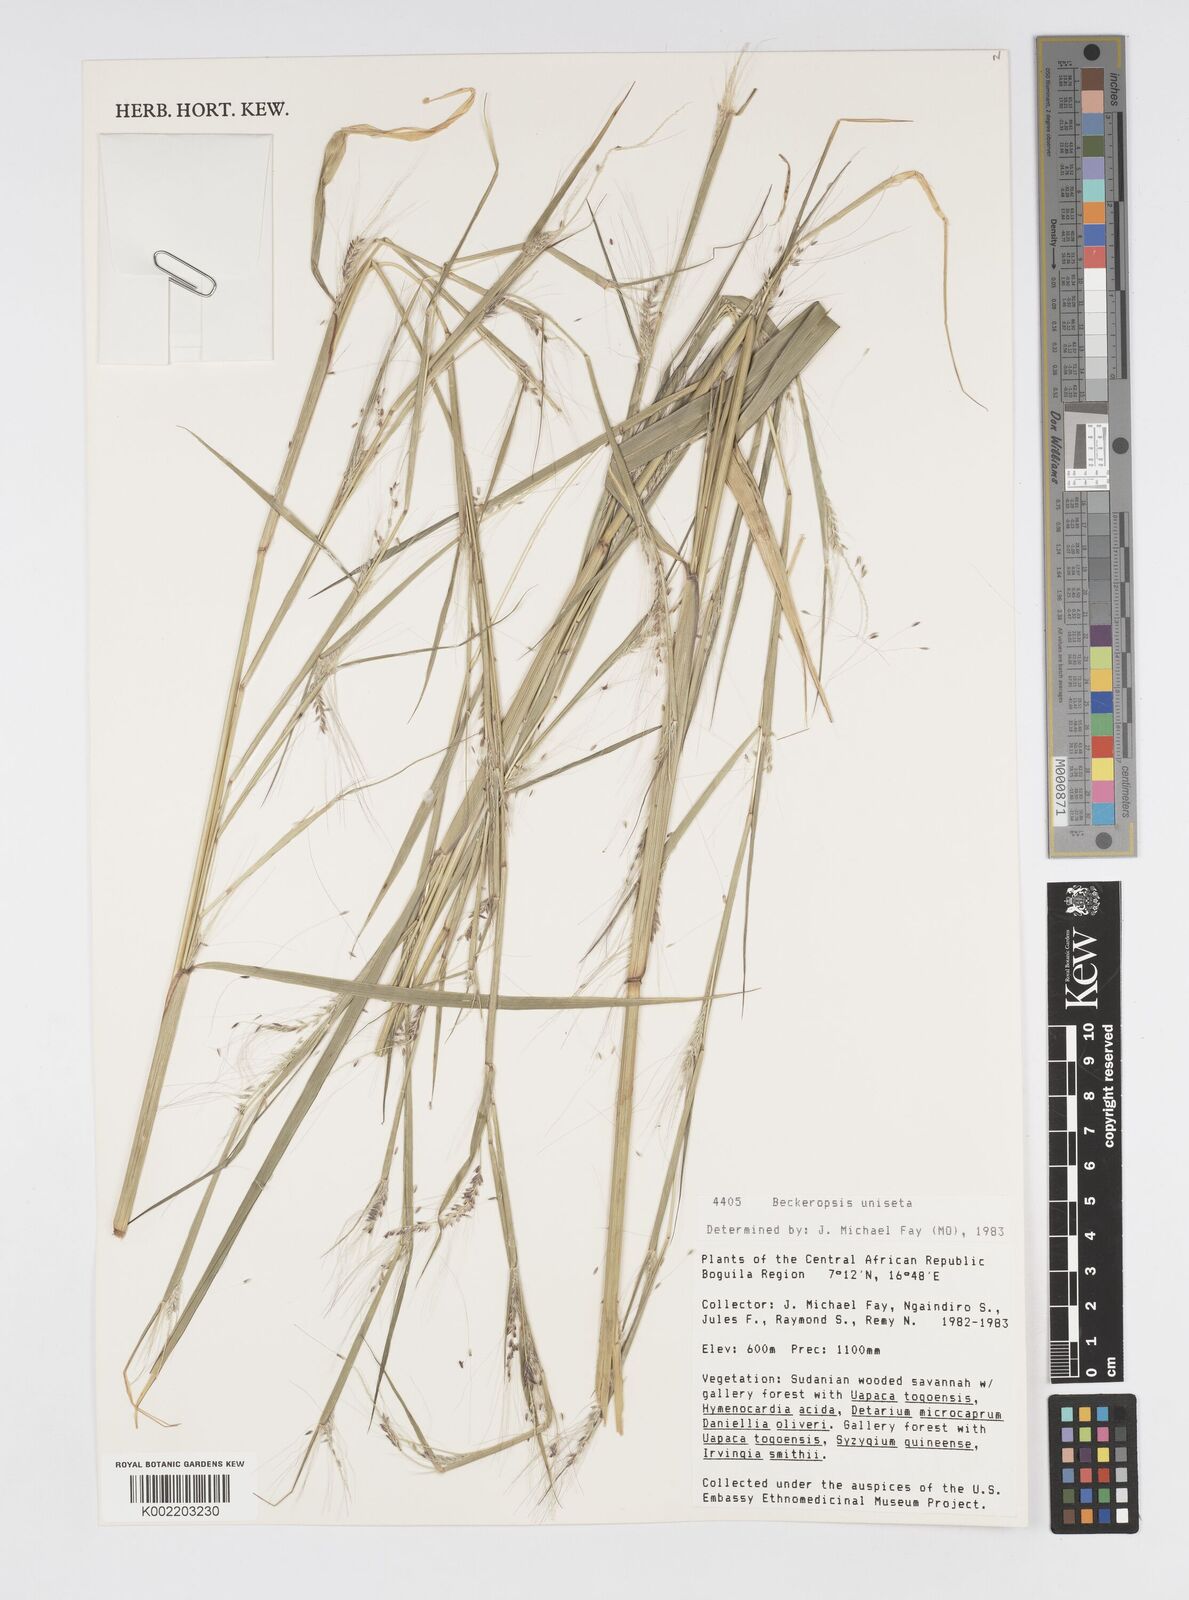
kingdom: Plantae
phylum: Tracheophyta
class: Liliopsida
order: Poales
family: Poaceae
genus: Cenchrus
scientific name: Cenchrus unisetus
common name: Natal grass
